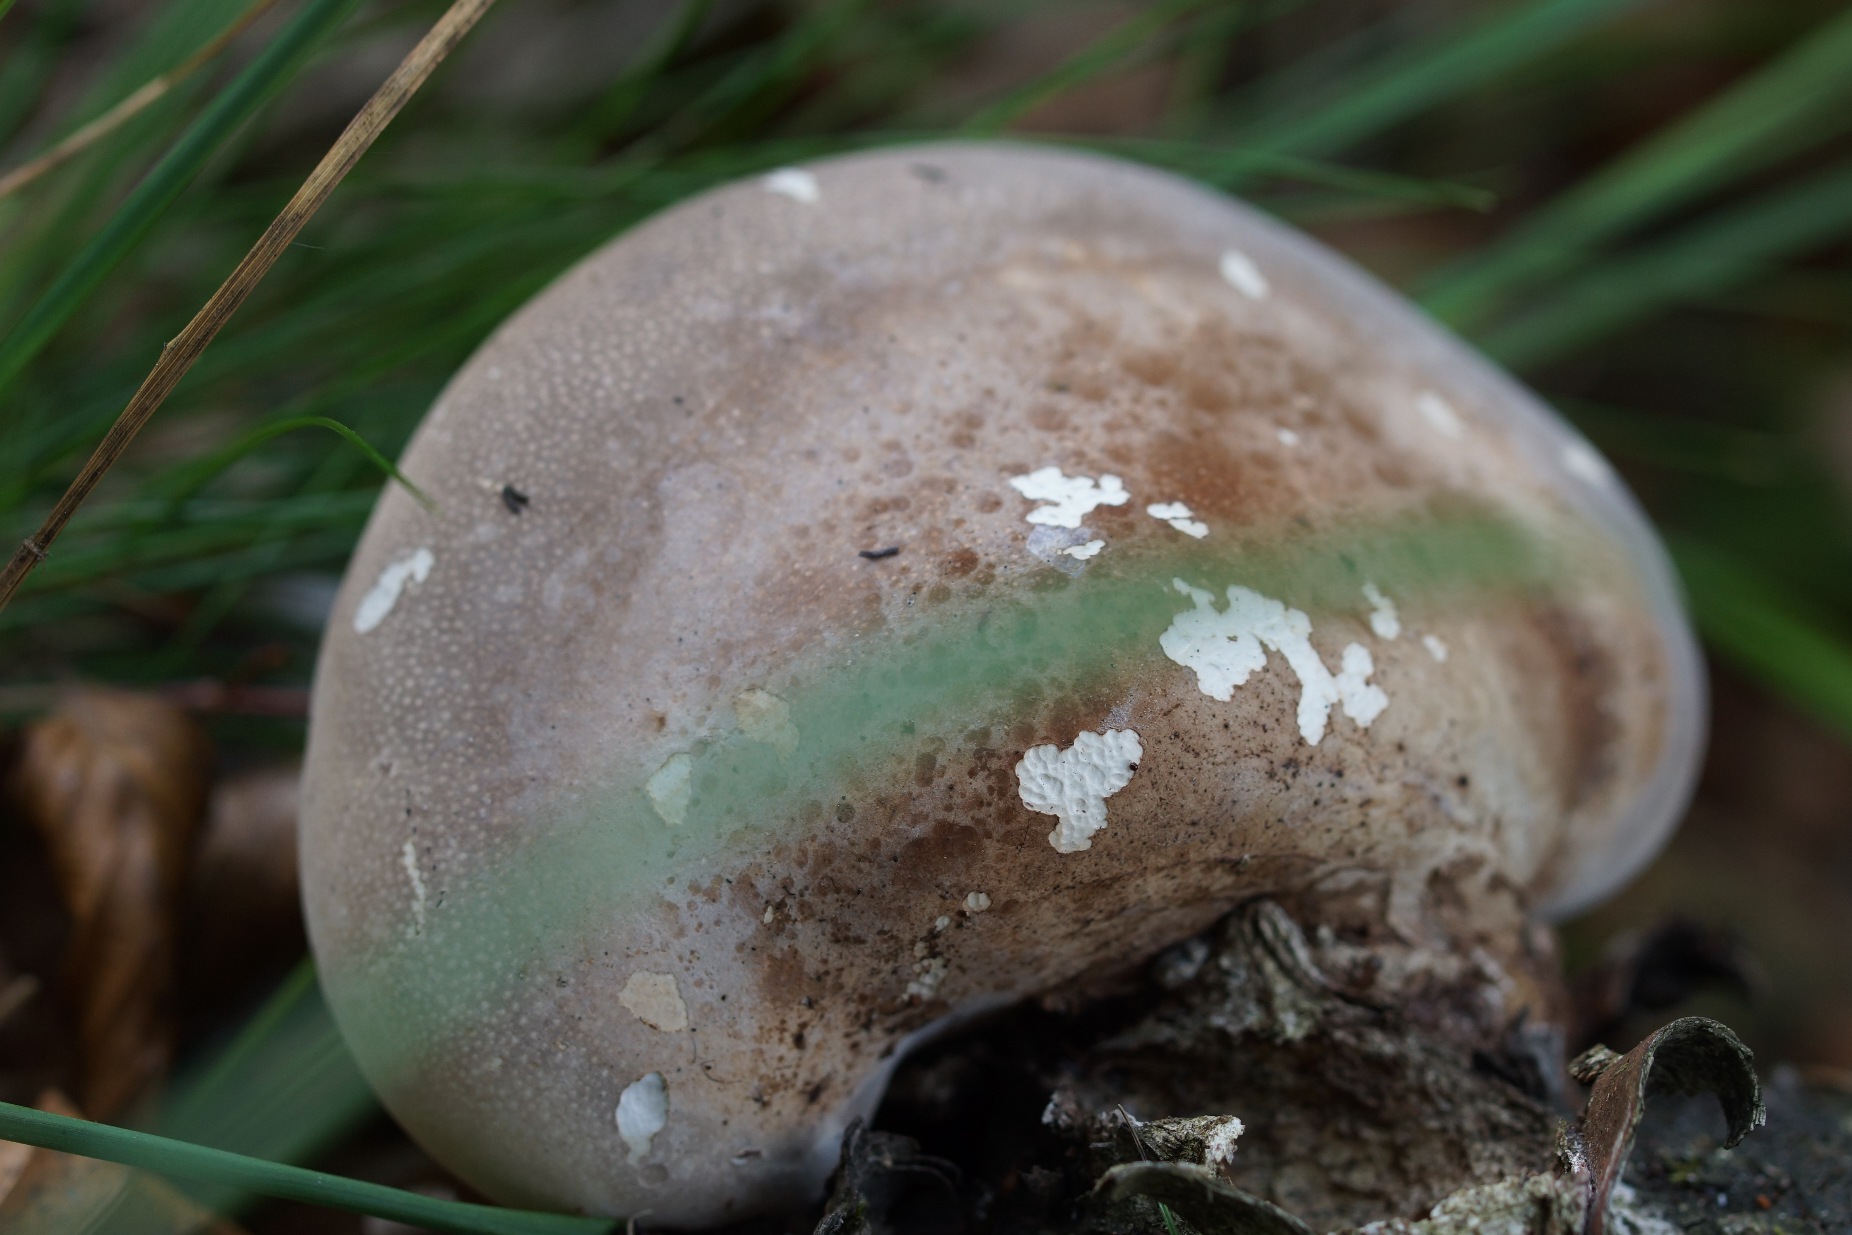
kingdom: Fungi
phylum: Basidiomycota
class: Agaricomycetes
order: Polyporales
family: Fomitopsidaceae
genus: Fomitopsis
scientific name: Fomitopsis betulina
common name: Birkeporesvamp
